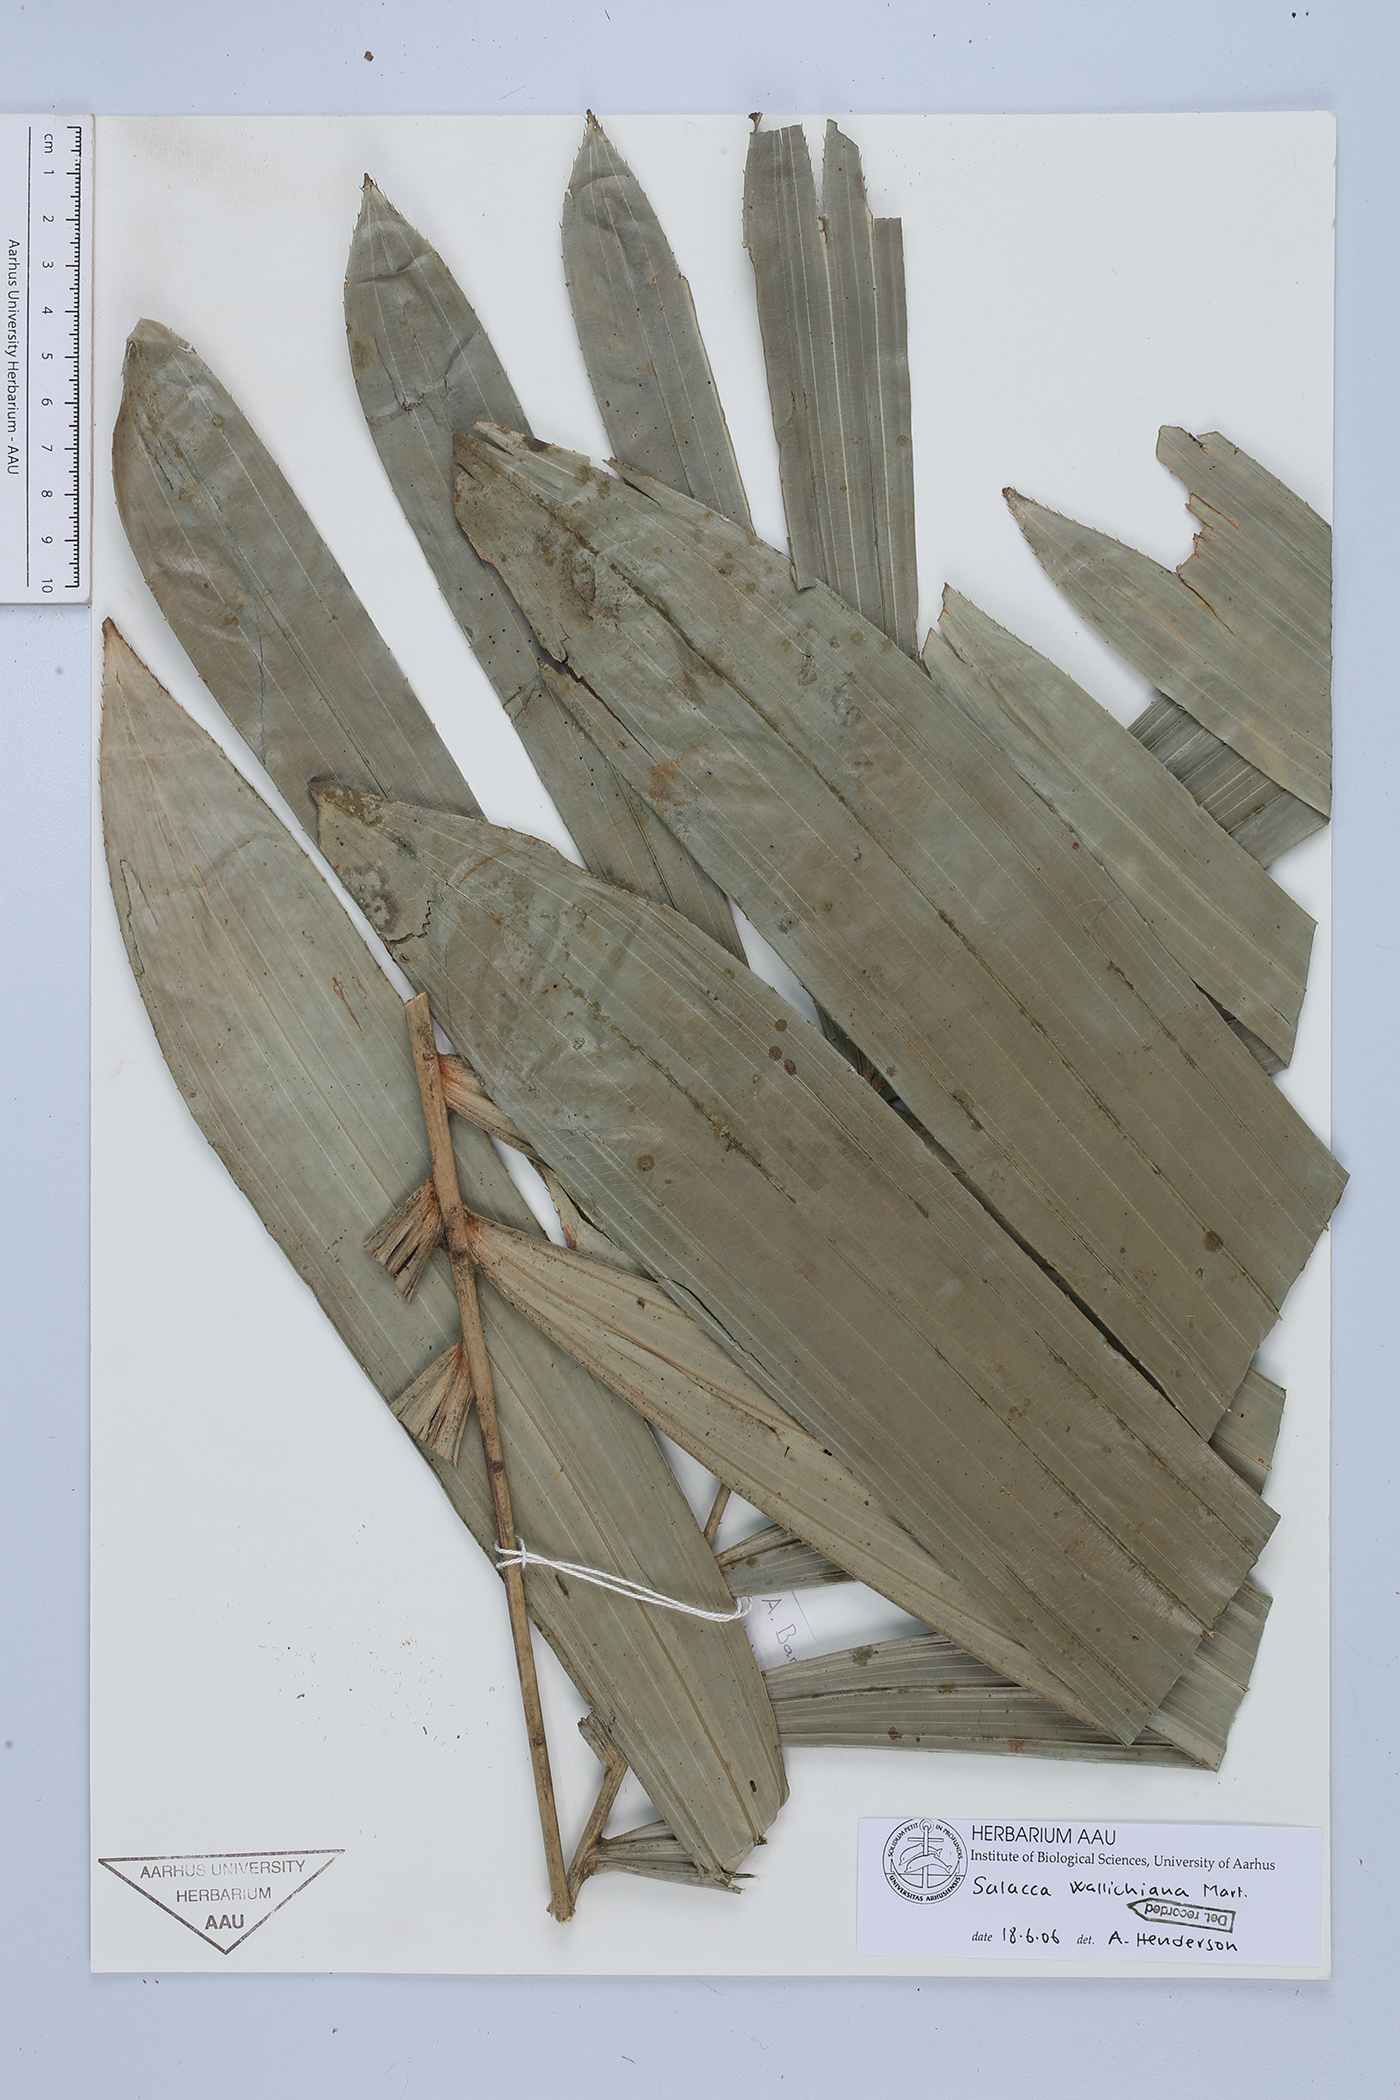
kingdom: Plantae
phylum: Tracheophyta
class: Liliopsida
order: Arecales
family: Arecaceae
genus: Salacca
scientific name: Salacca wallichiana
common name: Rakum palm
